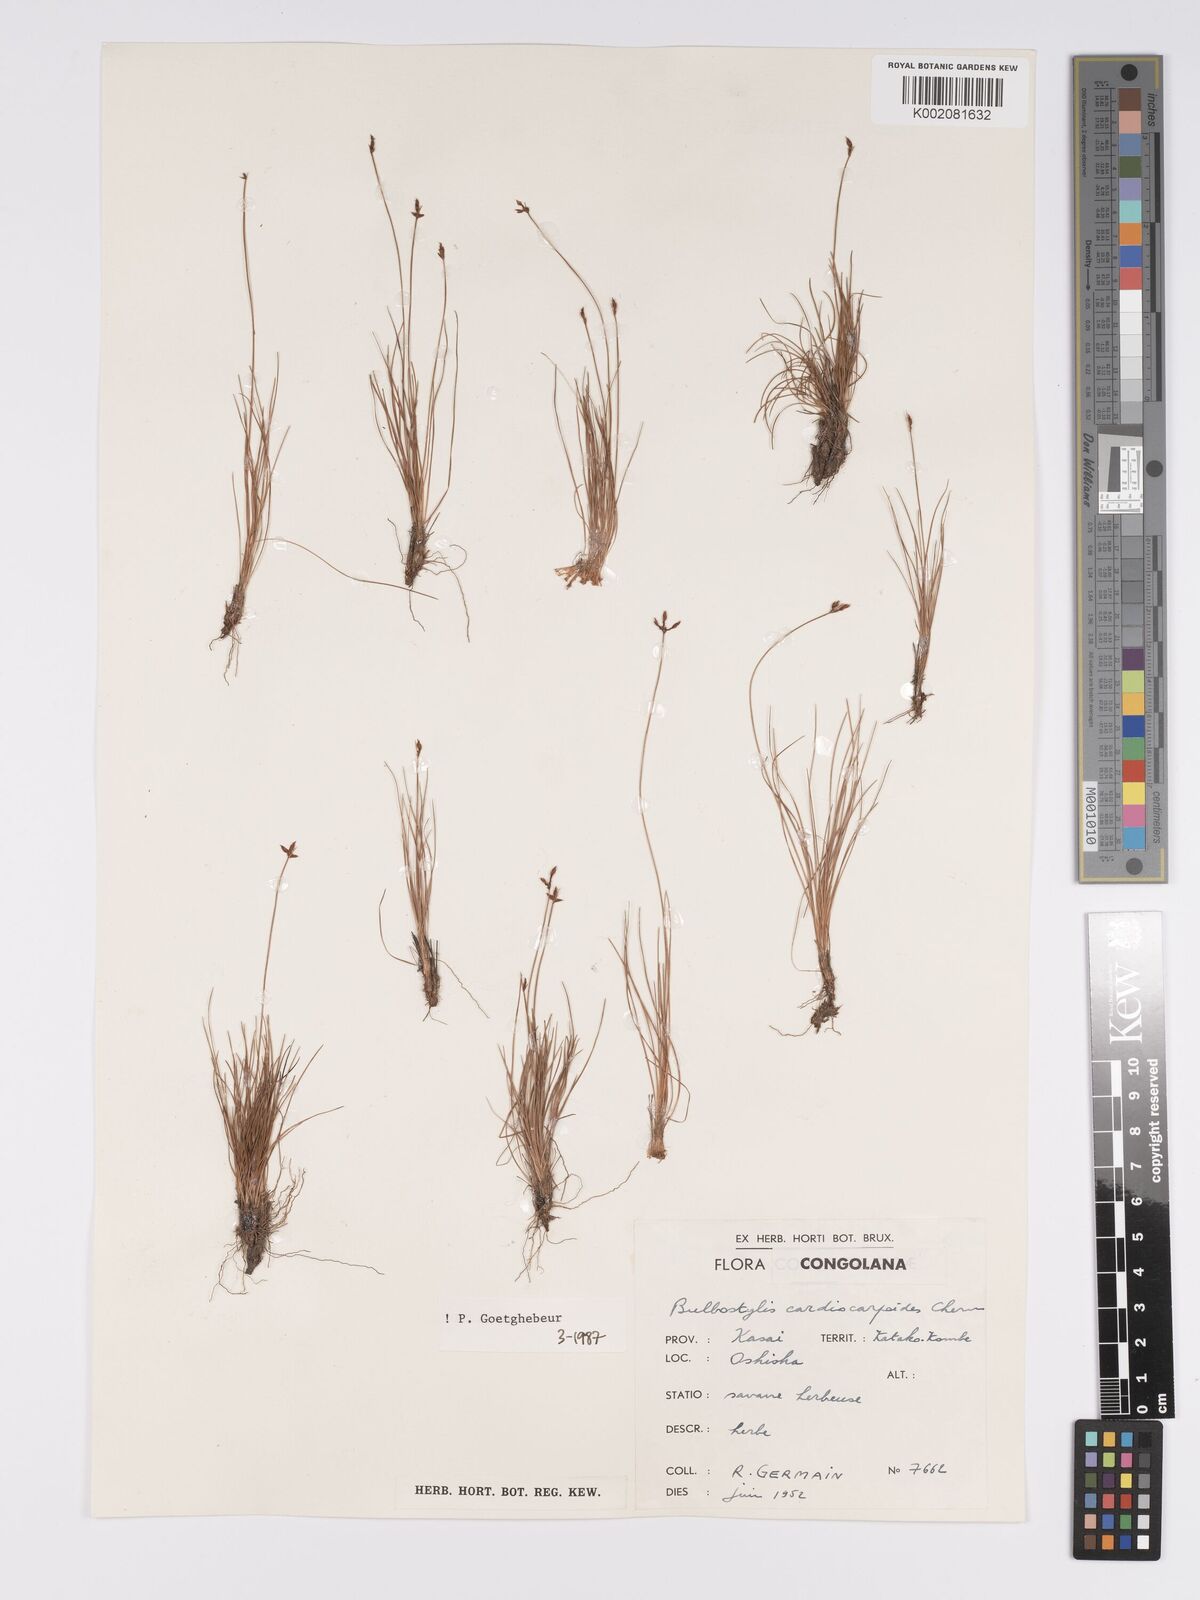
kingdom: Plantae
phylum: Tracheophyta
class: Liliopsida
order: Poales
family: Cyperaceae
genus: Bulbostylis
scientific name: Bulbostylis cardiocarpoides
